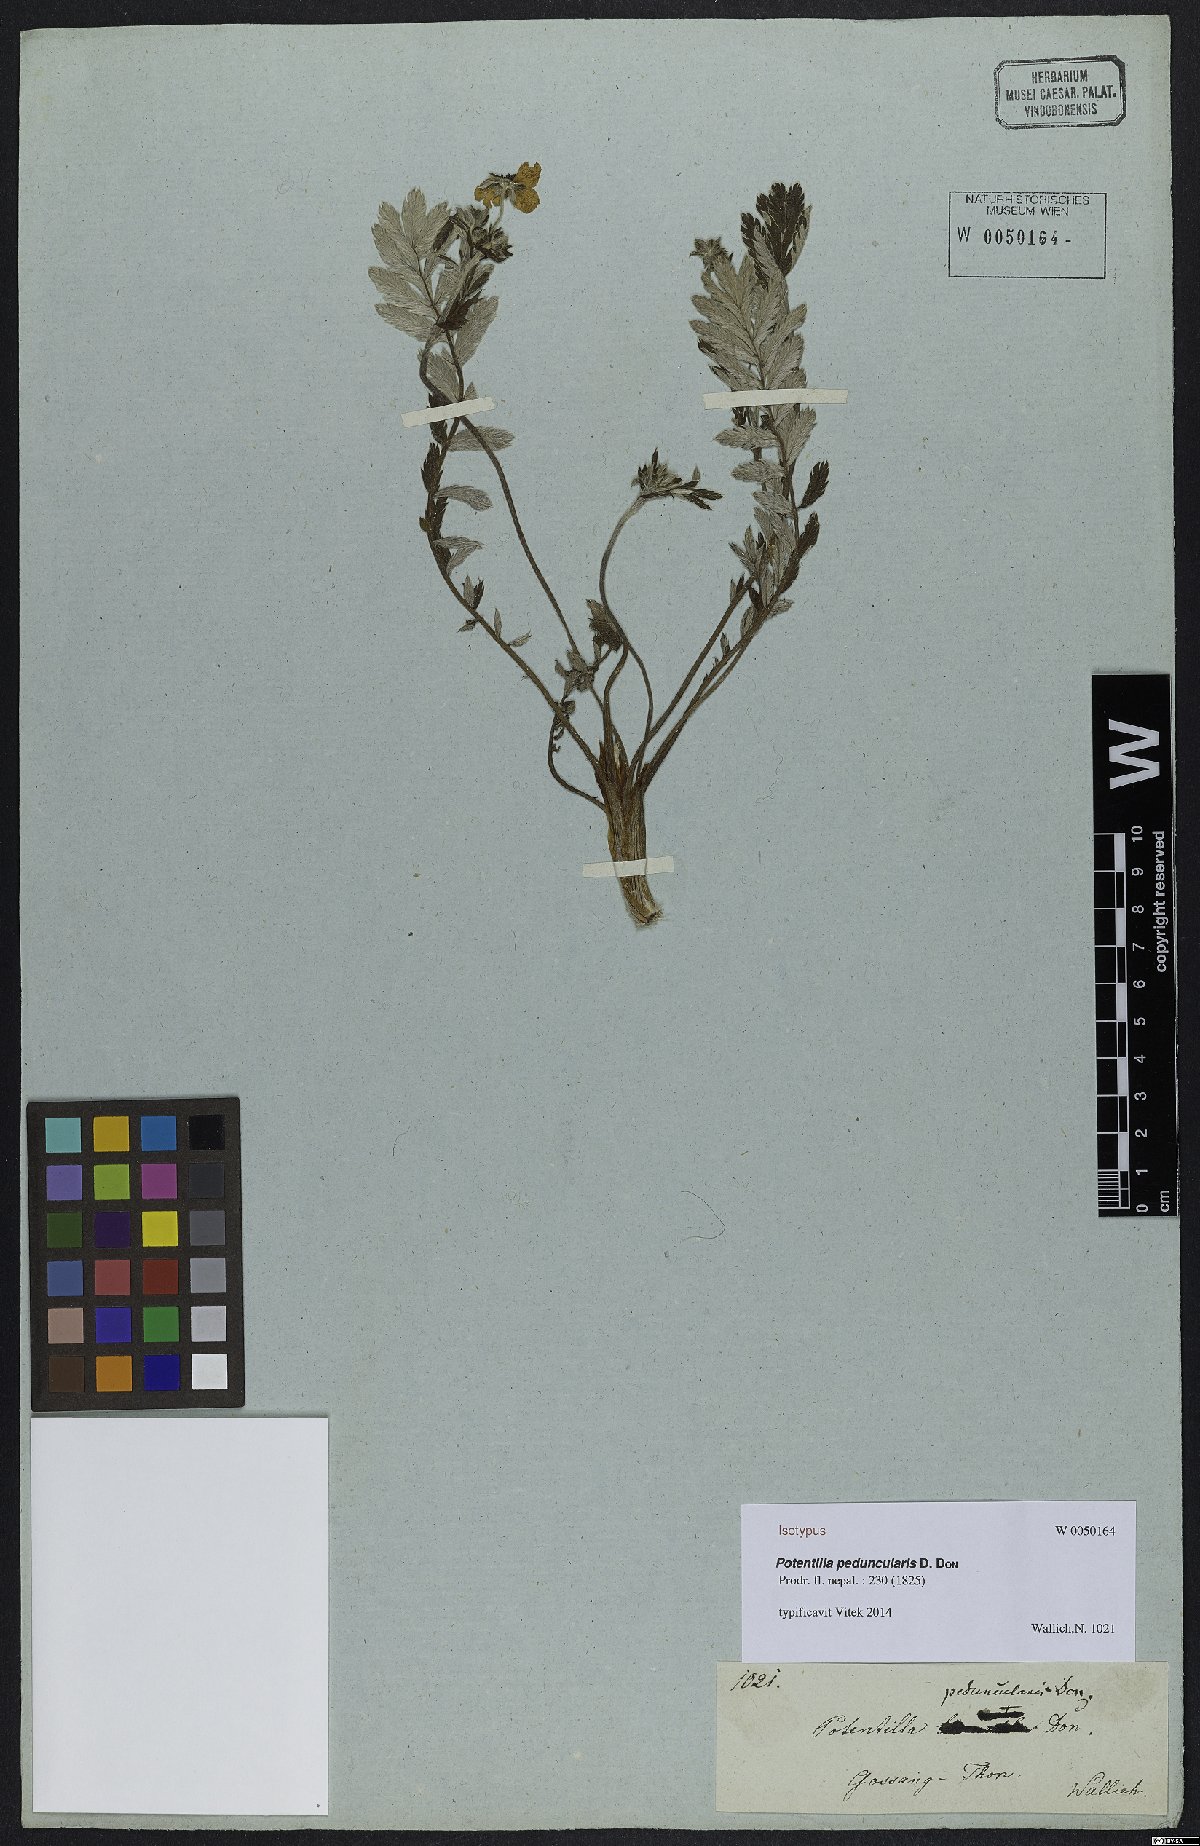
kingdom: Plantae
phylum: Tracheophyta
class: Magnoliopsida
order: Rosales
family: Rosaceae
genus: Argentina
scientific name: Argentina peduncularis
